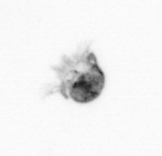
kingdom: Animalia
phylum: Arthropoda
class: Copepoda
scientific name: Copepoda
